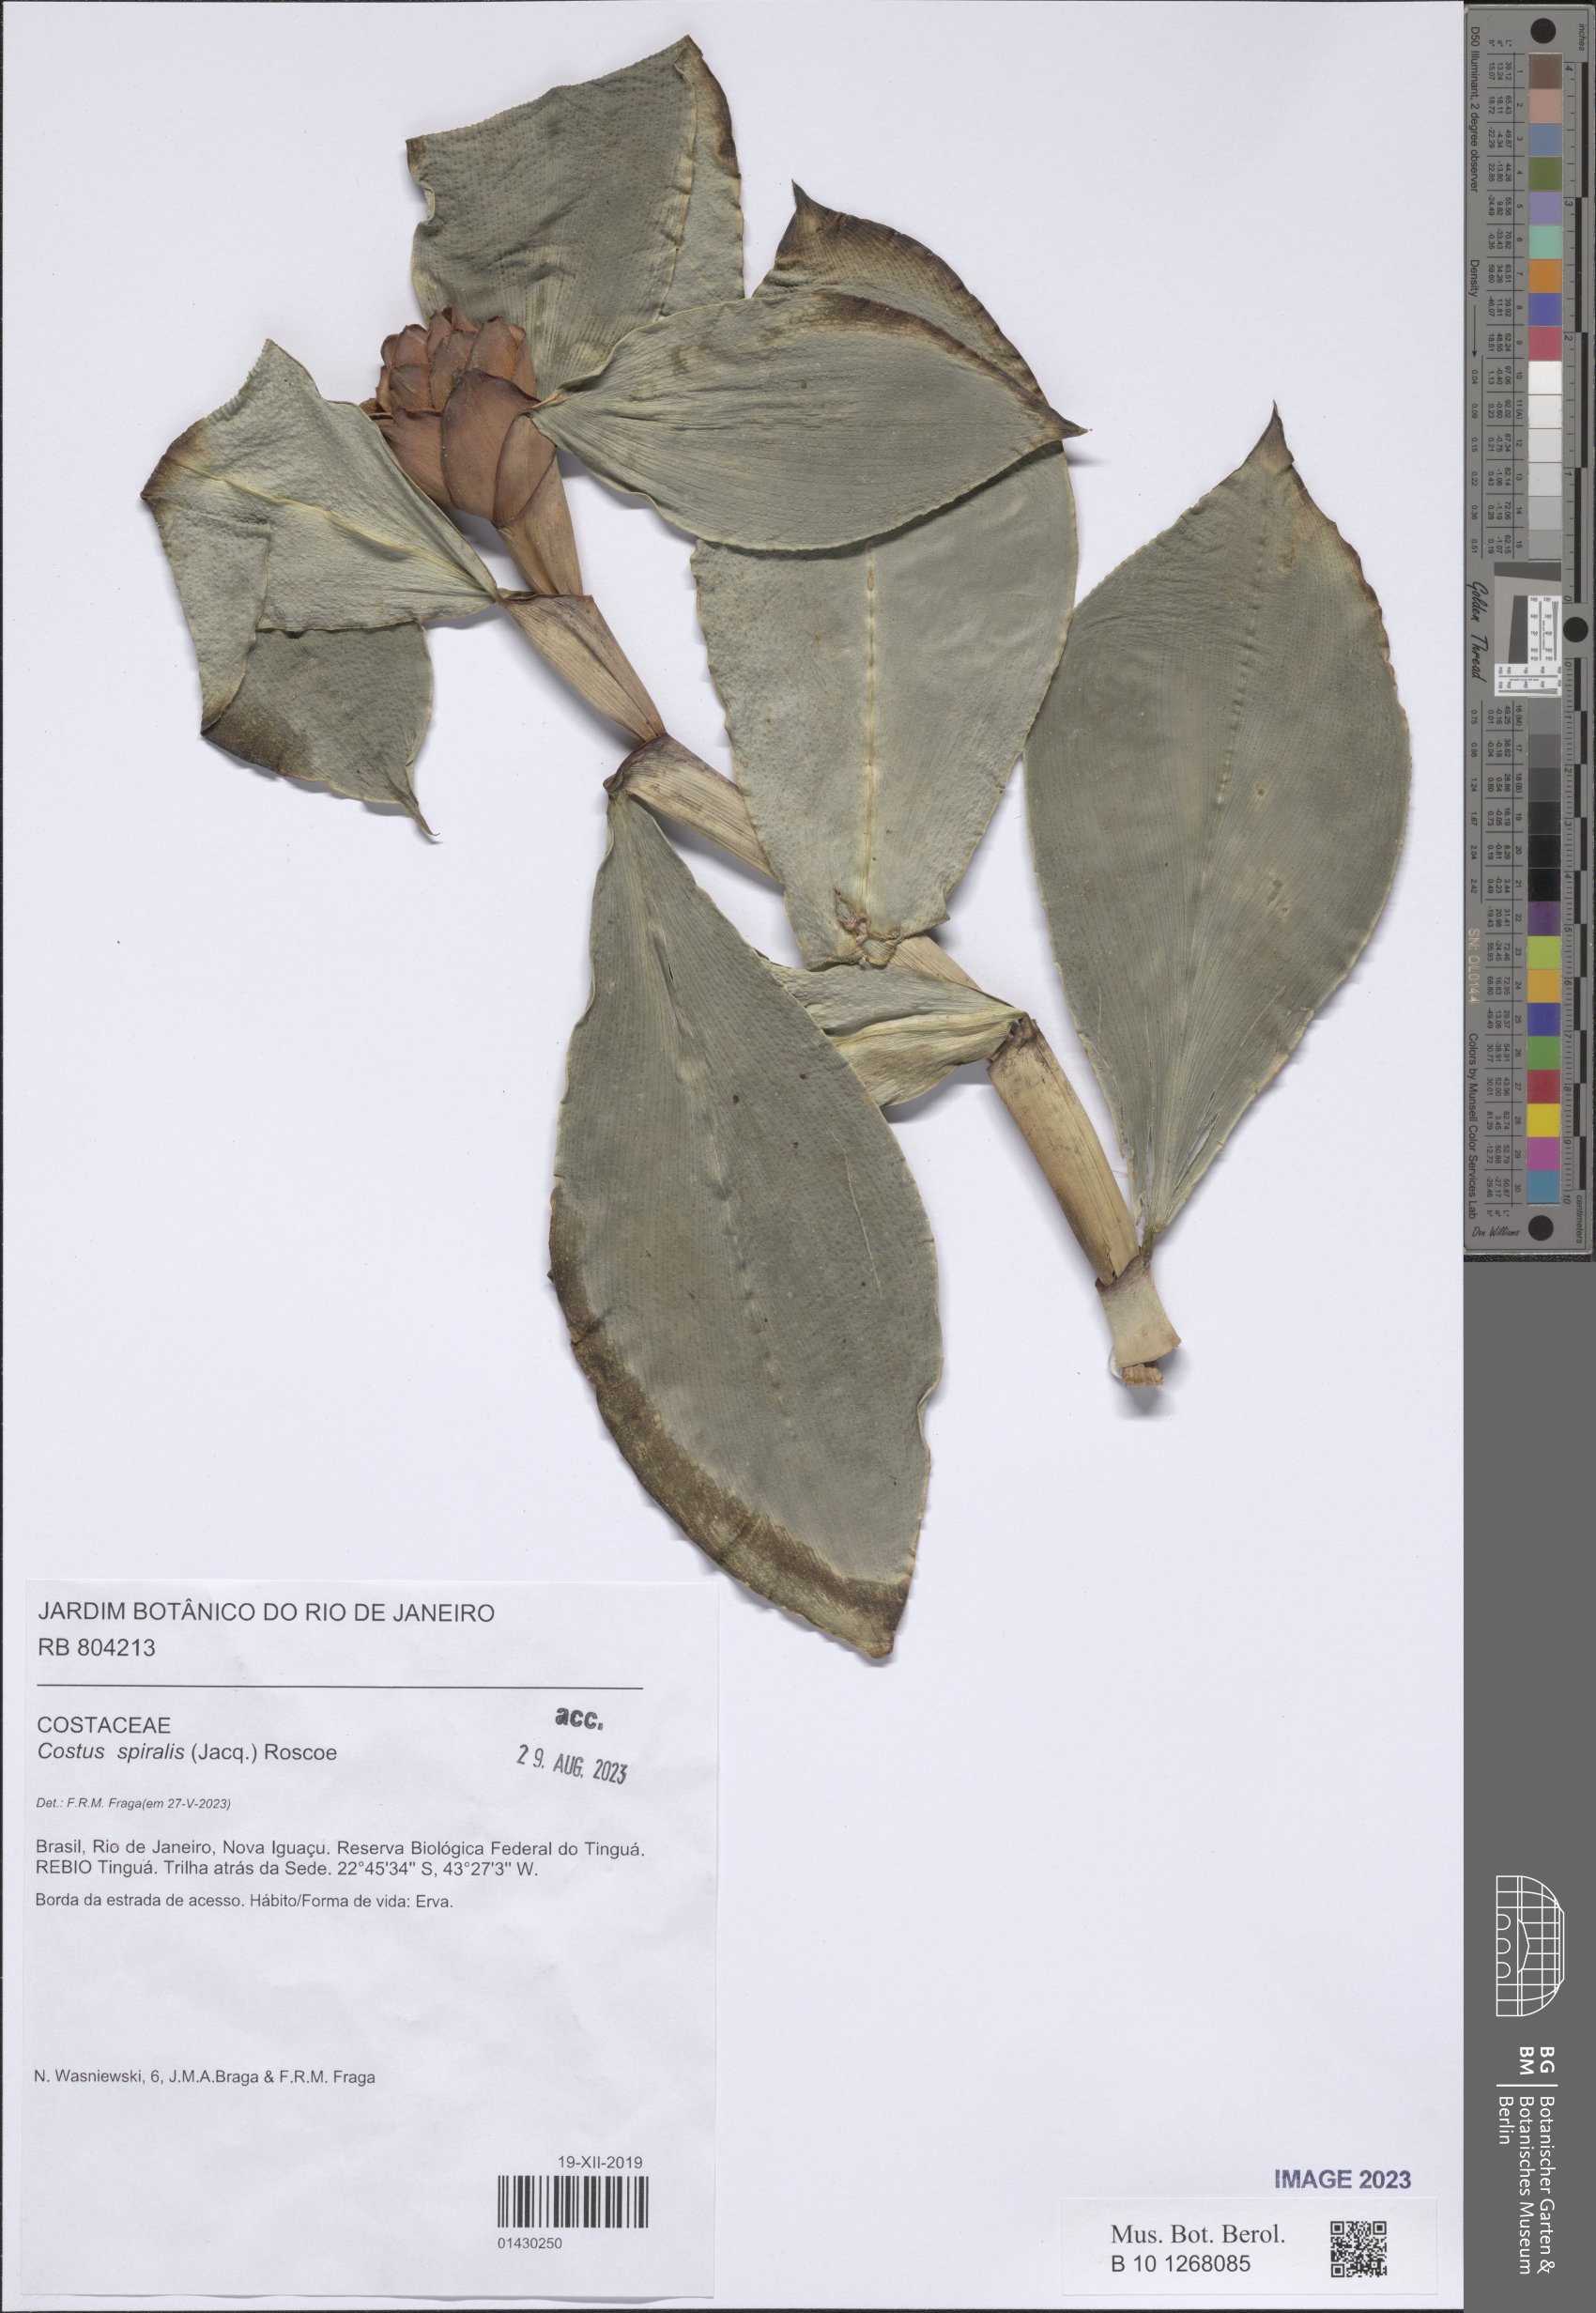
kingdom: Plantae
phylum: Tracheophyta
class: Liliopsida
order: Zingiberales
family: Costaceae
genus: Costus
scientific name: Costus spiralis
